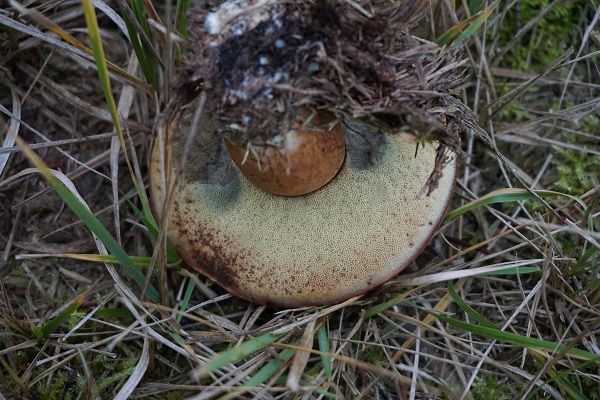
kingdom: Fungi
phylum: Basidiomycota
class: Agaricomycetes
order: Boletales
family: Boletaceae
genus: Imleria
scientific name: Imleria badia
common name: brunstokket rørhat
